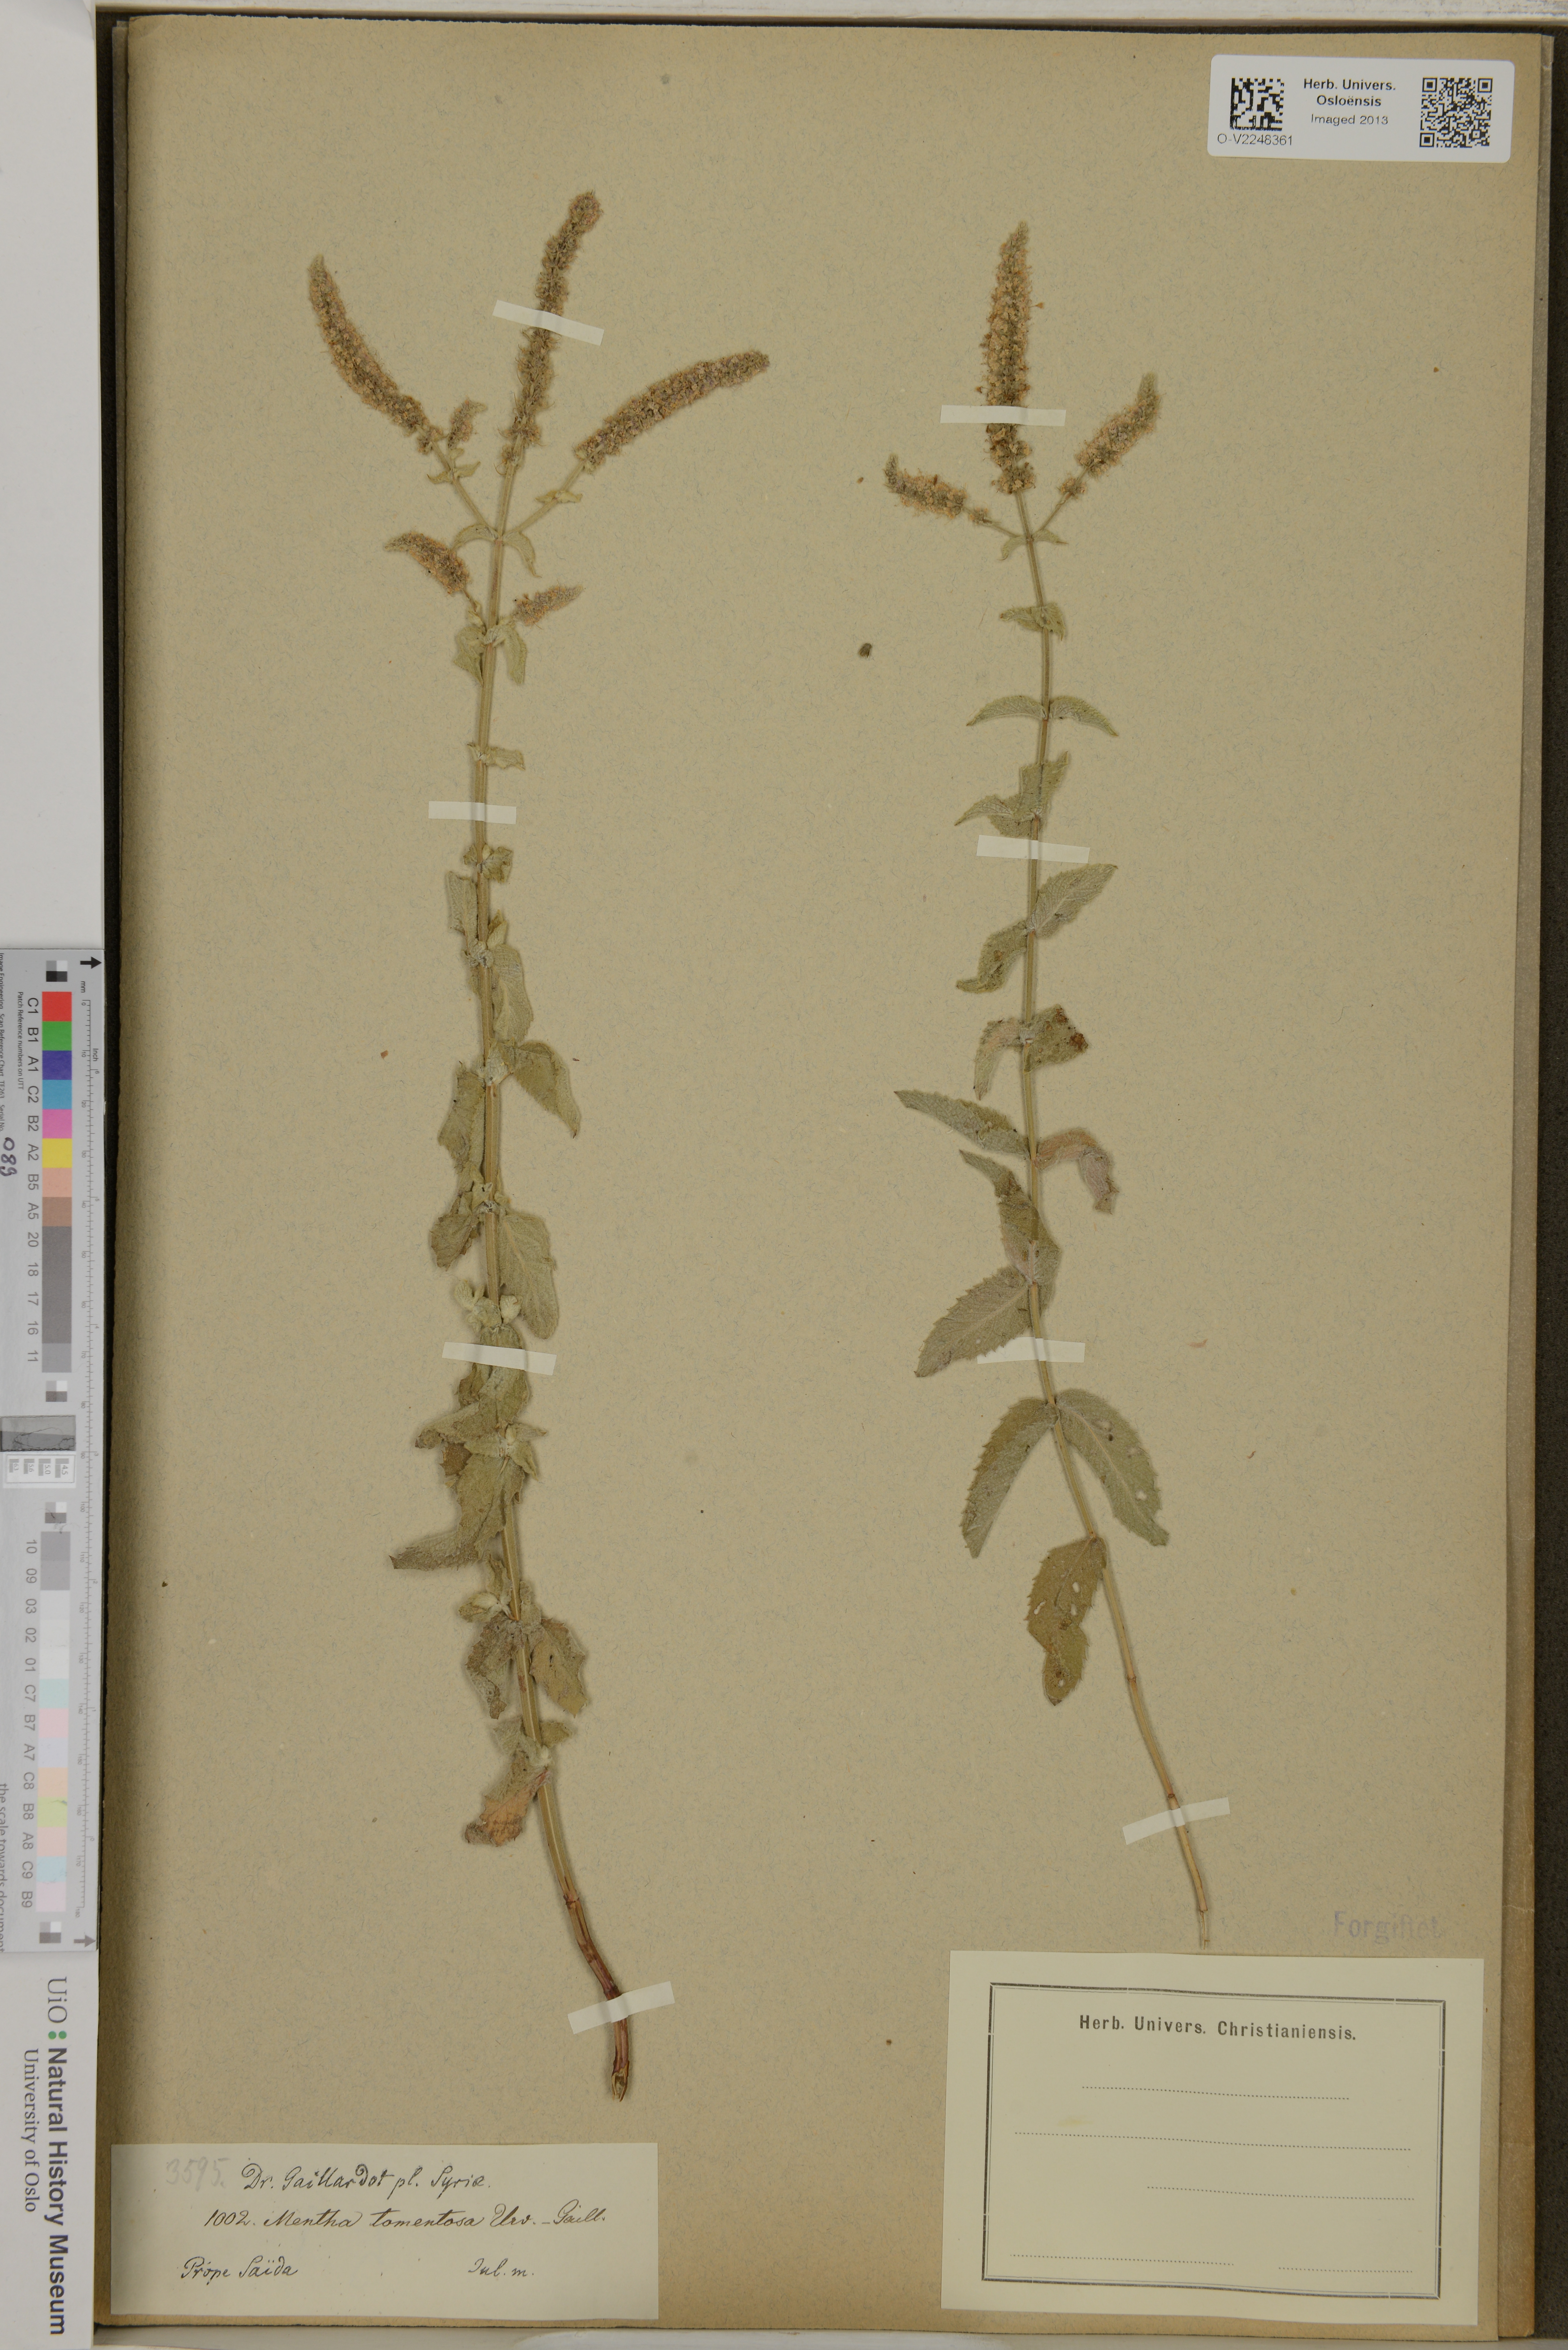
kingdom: Plantae
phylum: Tracheophyta
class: Magnoliopsida
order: Lamiales
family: Lamiaceae
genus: Mentha
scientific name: Mentha
